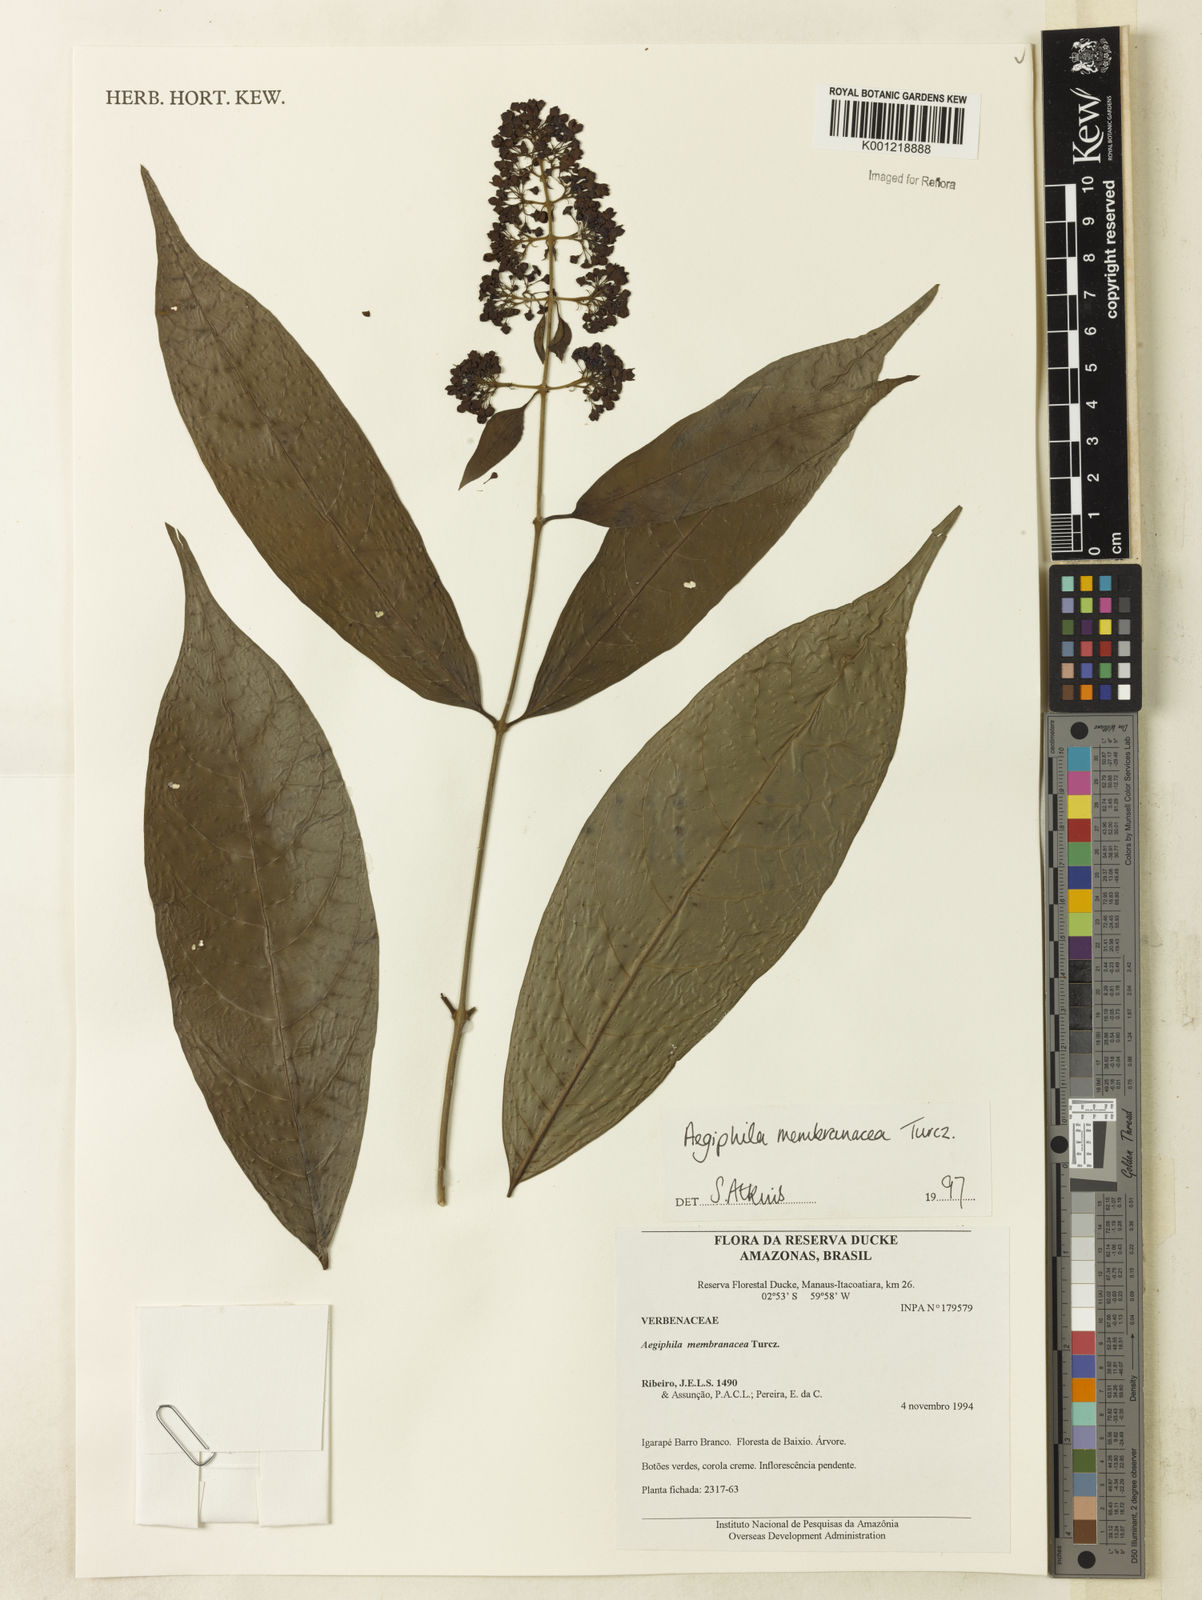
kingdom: Plantae
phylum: Tracheophyta
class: Magnoliopsida
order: Lamiales
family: Lamiaceae
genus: Aegiphila
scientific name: Aegiphila membranacea
